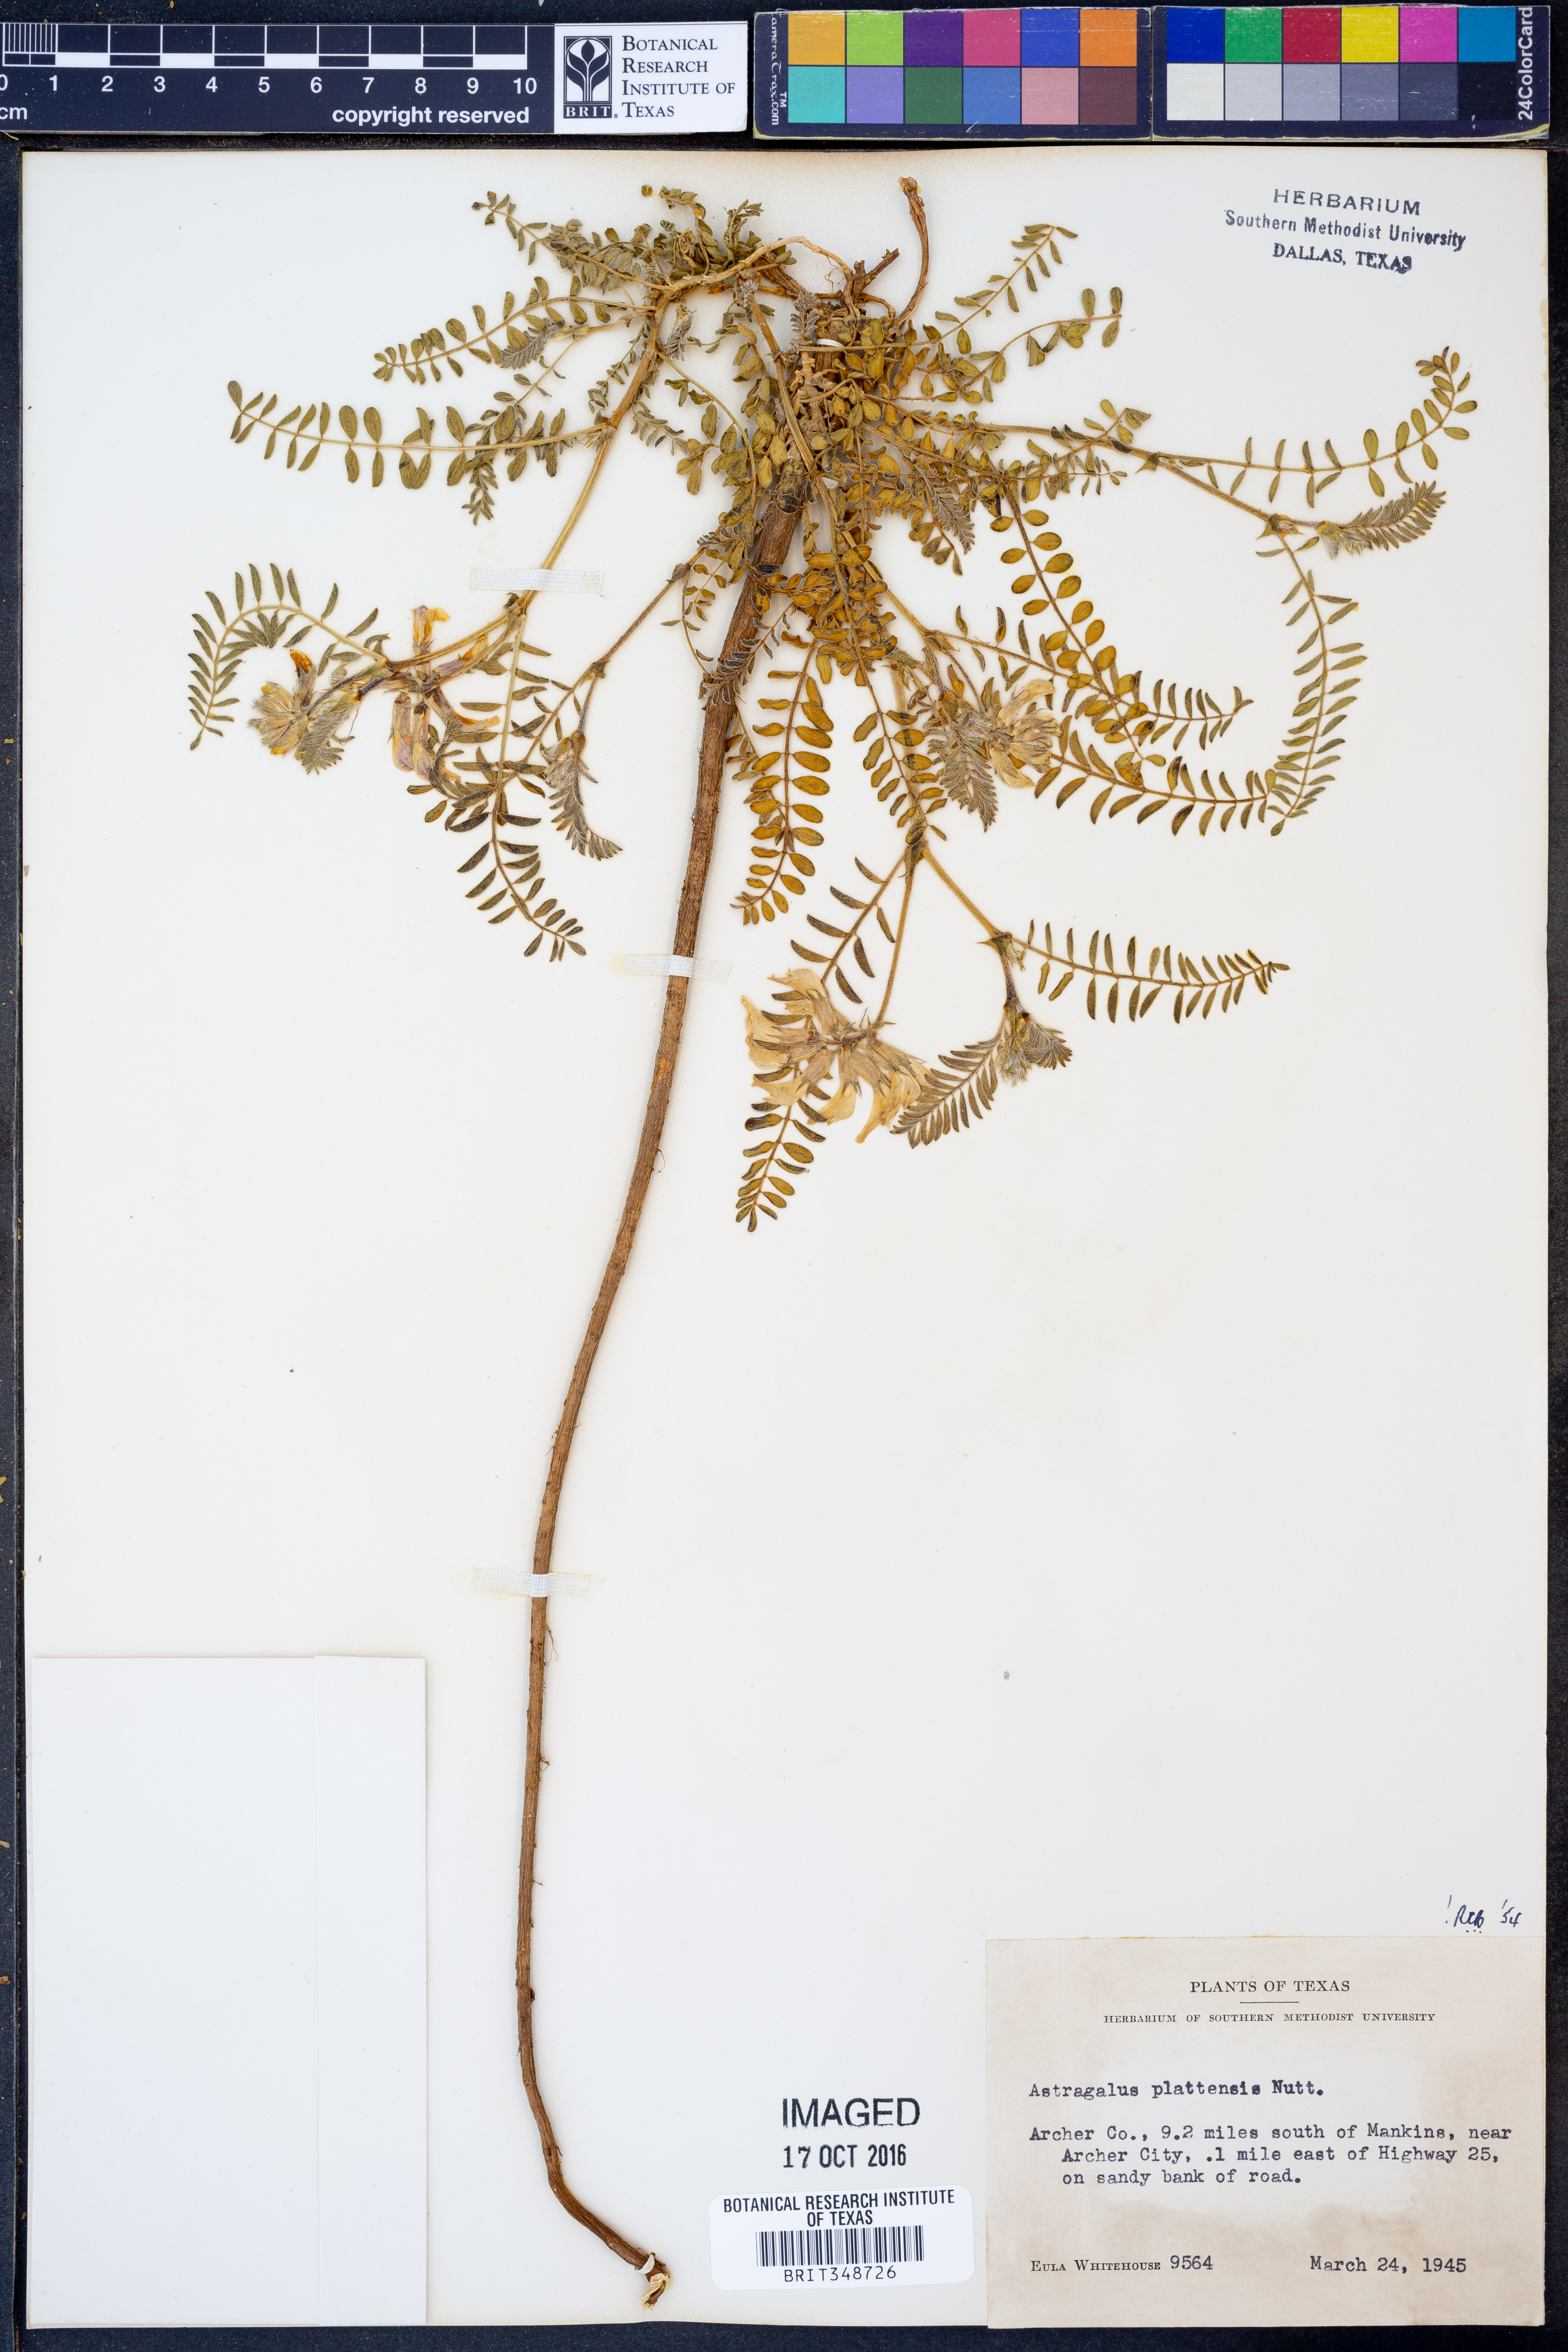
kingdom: Plantae
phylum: Tracheophyta
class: Magnoliopsida
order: Fabales
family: Fabaceae
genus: Astragalus
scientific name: Astragalus plattensis
